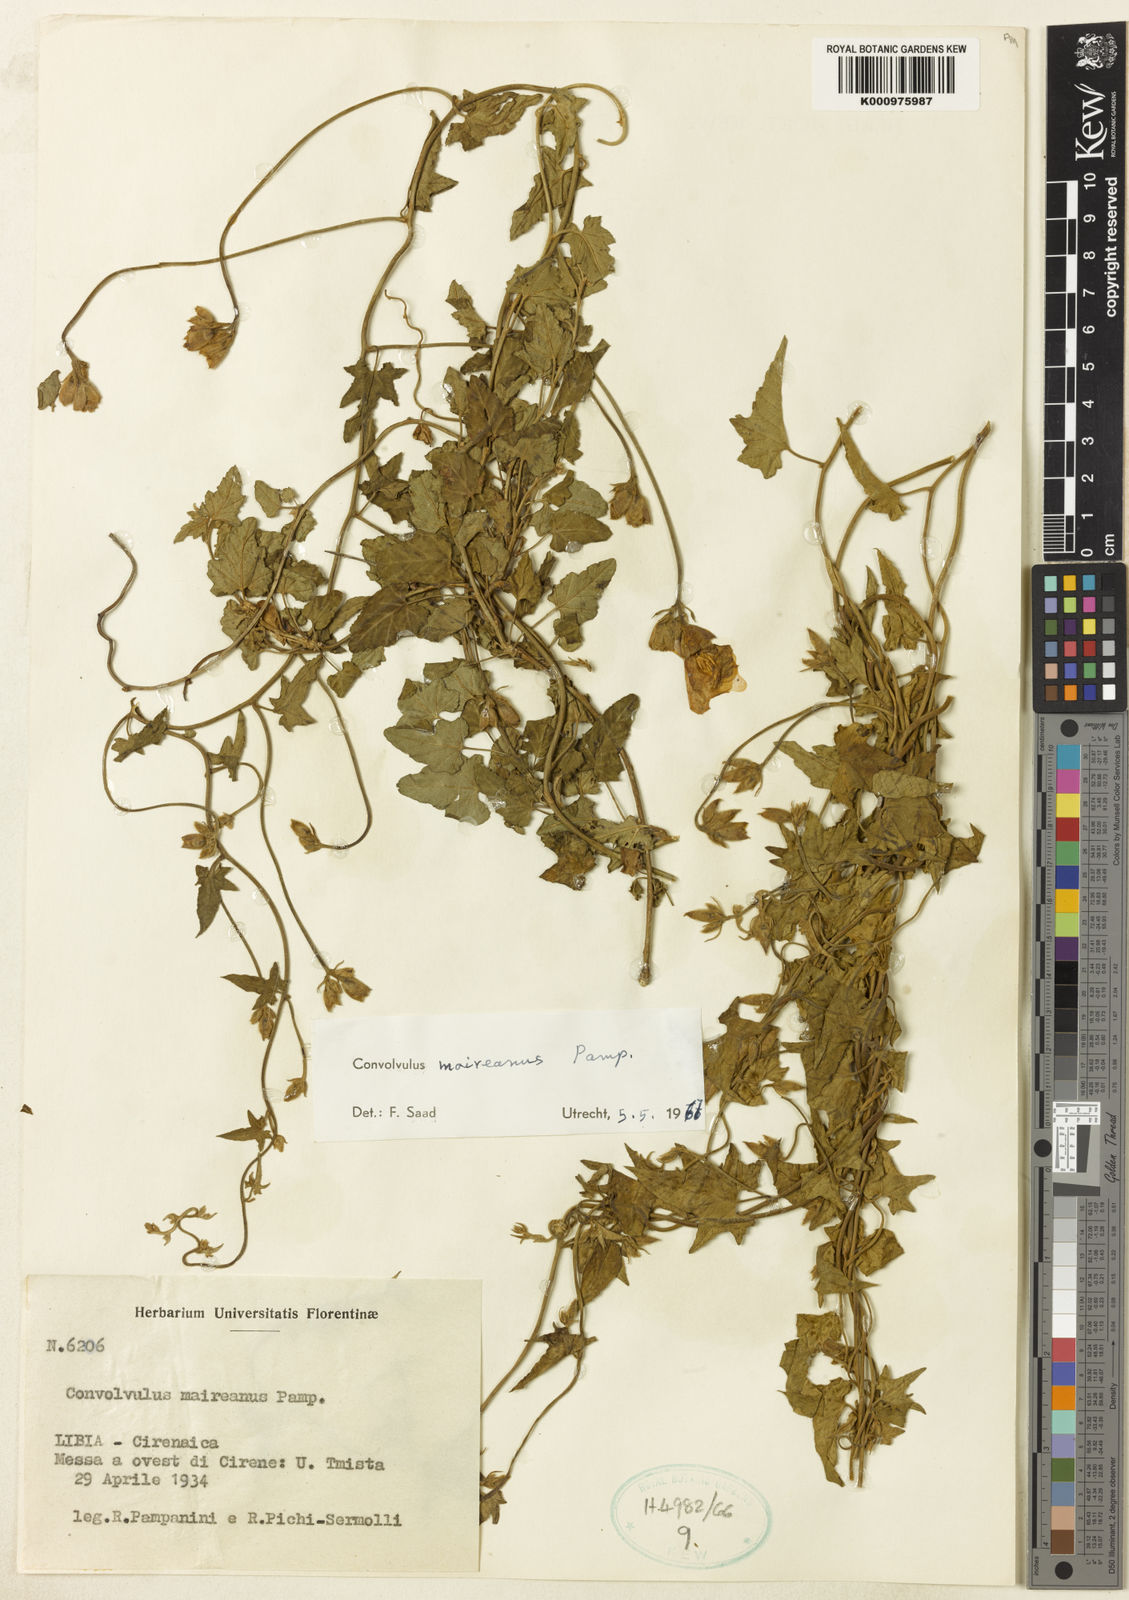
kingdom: Plantae
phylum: Tracheophyta
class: Magnoliopsida
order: Solanales
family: Convolvulaceae
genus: Convolvulus
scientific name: Convolvulus maireanus
